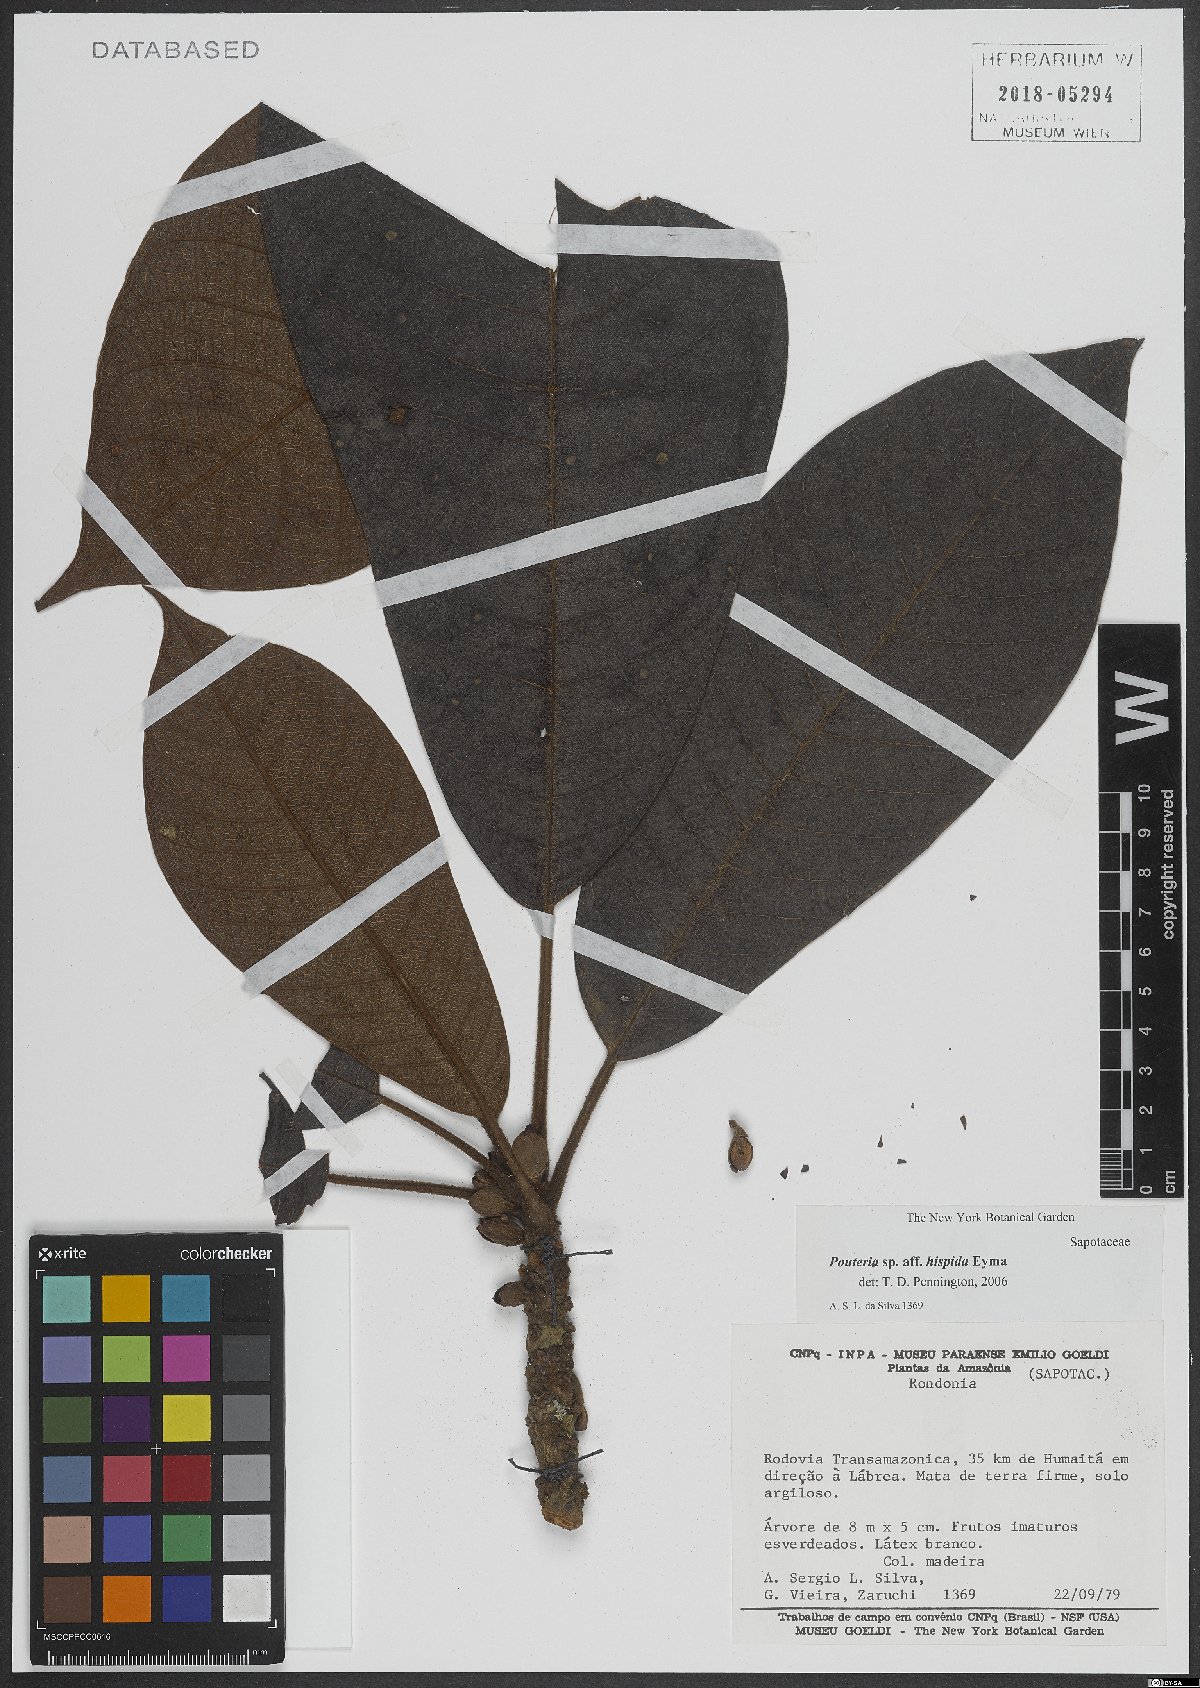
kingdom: Plantae
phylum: Tracheophyta
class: Magnoliopsida
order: Ericales
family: Sapotaceae
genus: Pouteria
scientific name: Pouteria guianensis
